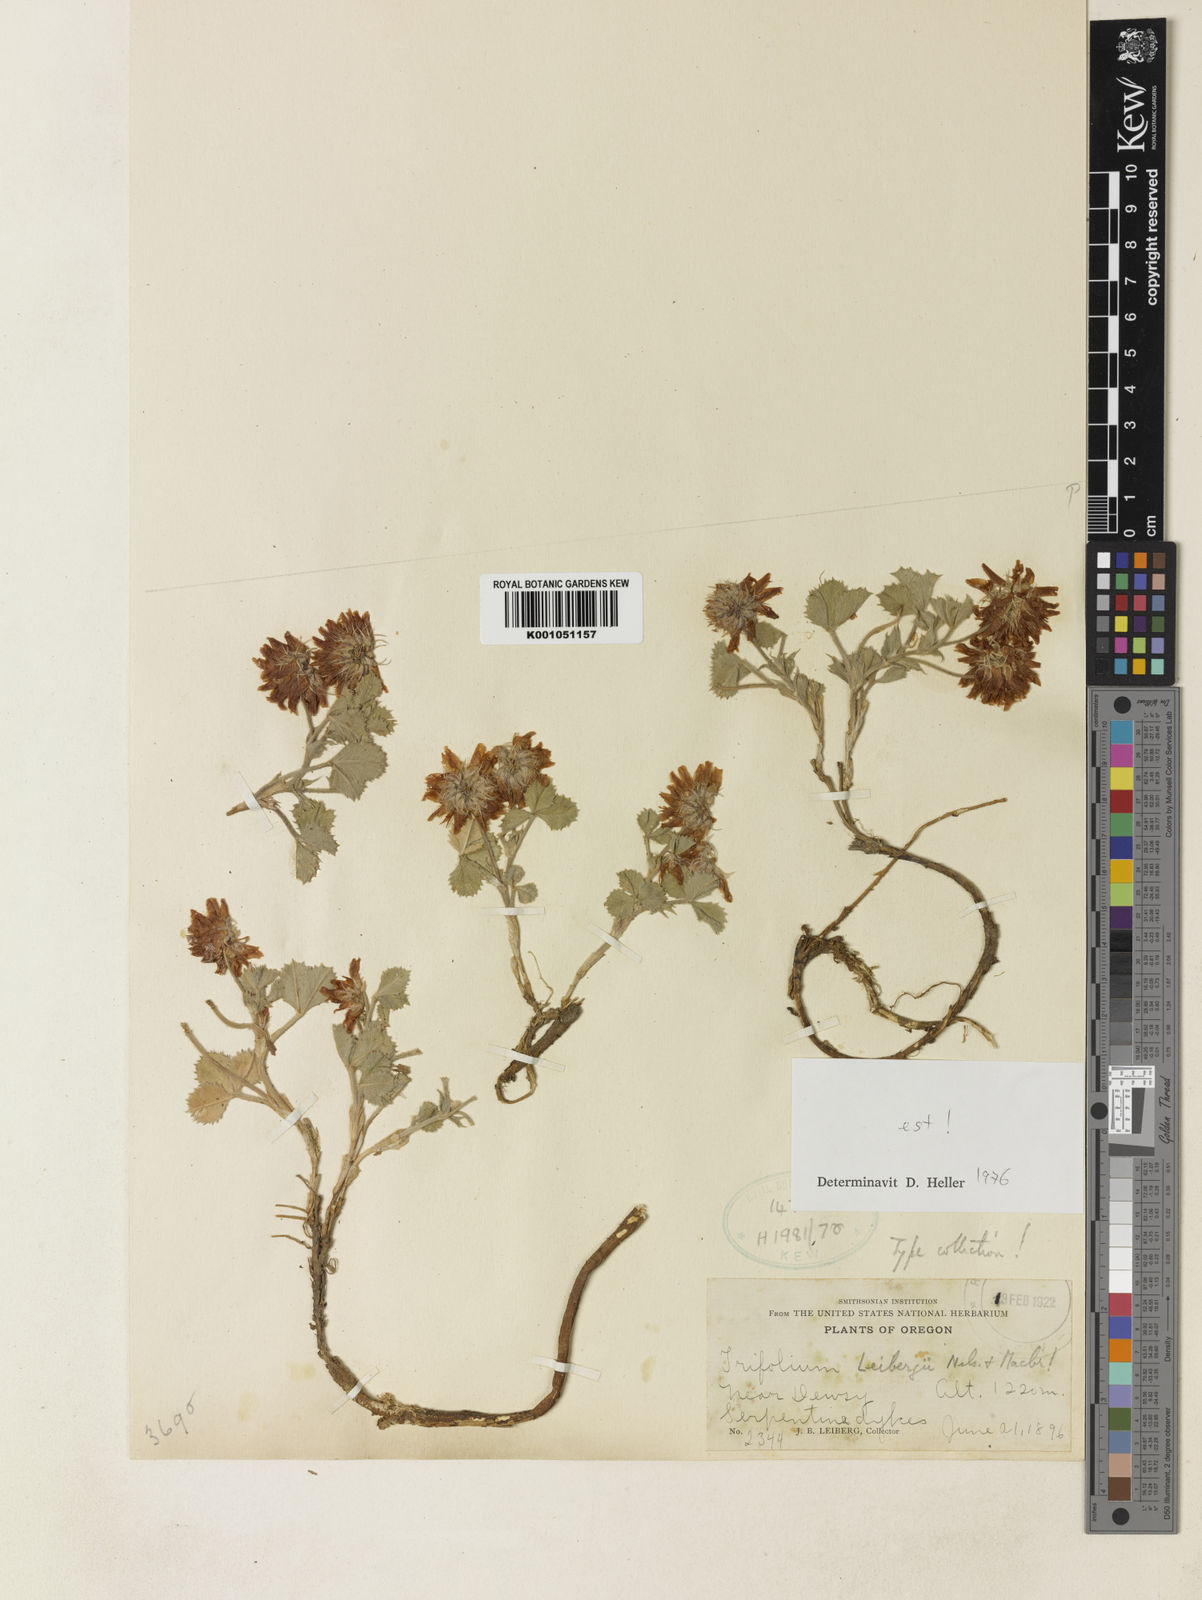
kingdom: Plantae
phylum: Tracheophyta
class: Magnoliopsida
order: Fabales
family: Fabaceae
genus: Trifolium
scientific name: Trifolium leibergii
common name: Holly-leaf clover
